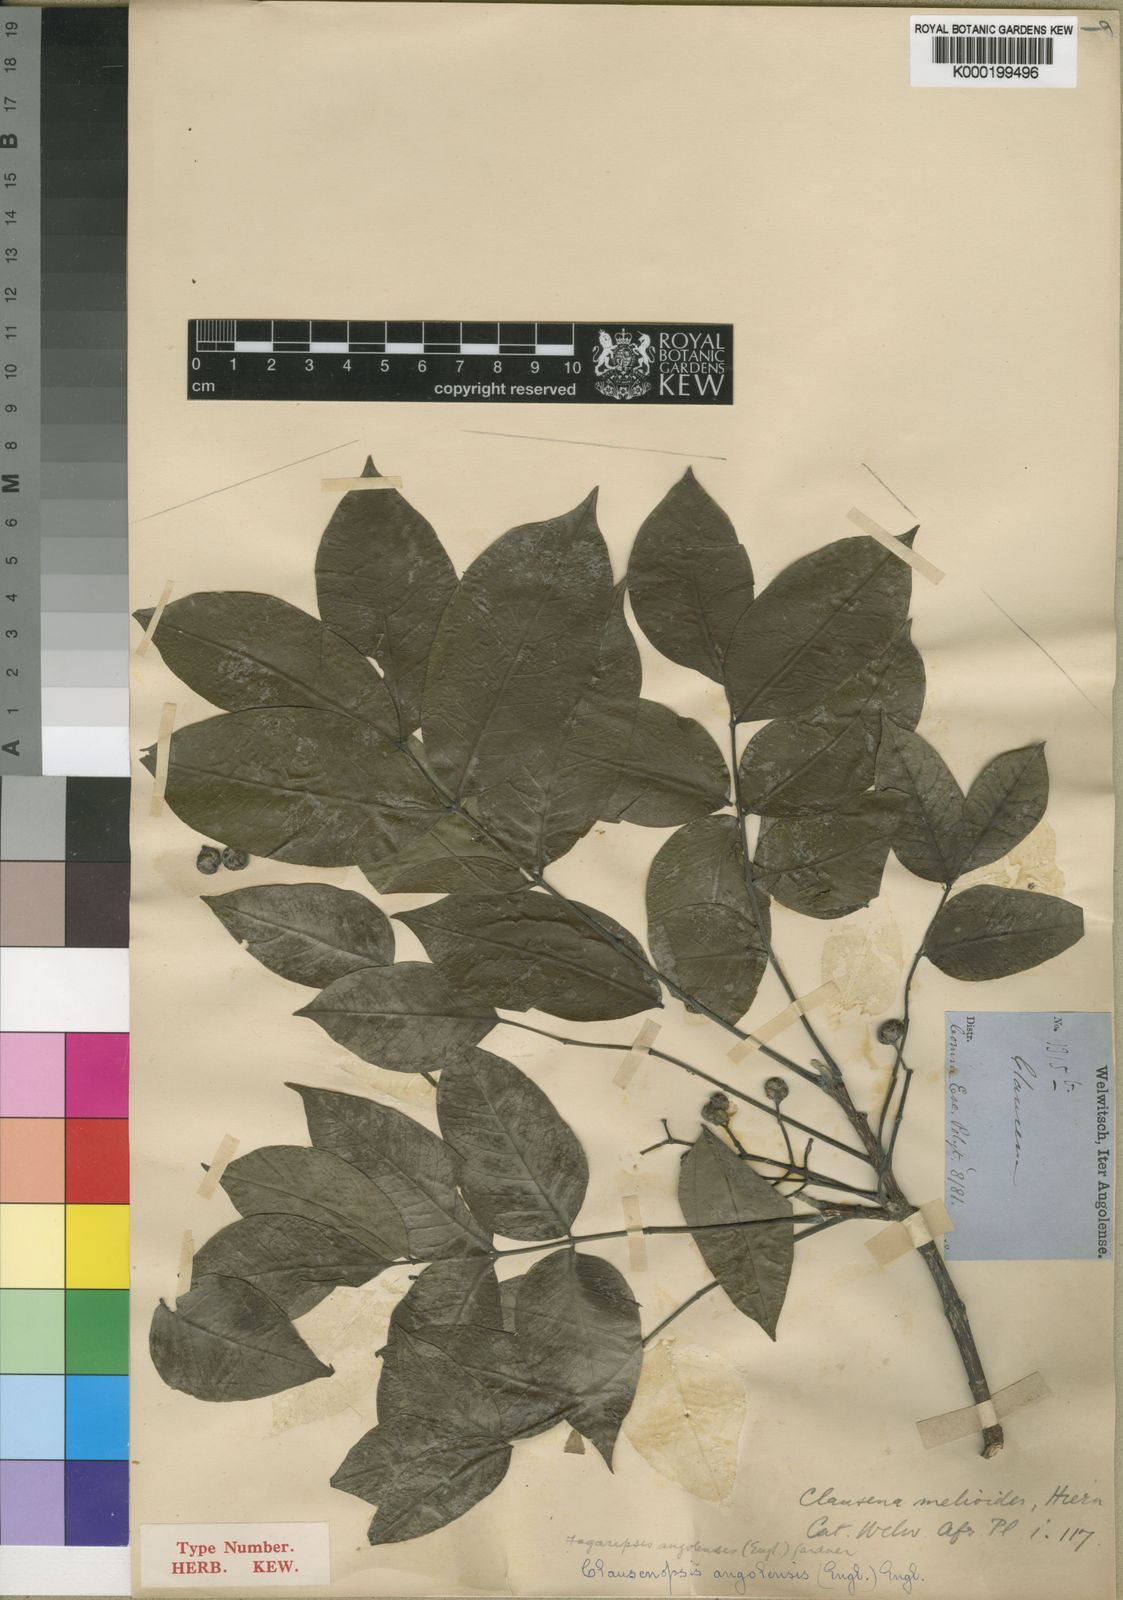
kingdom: Plantae
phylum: Tracheophyta
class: Magnoliopsida
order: Sapindales
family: Rutaceae
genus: Fagaropsis
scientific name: Fagaropsis angolensis
